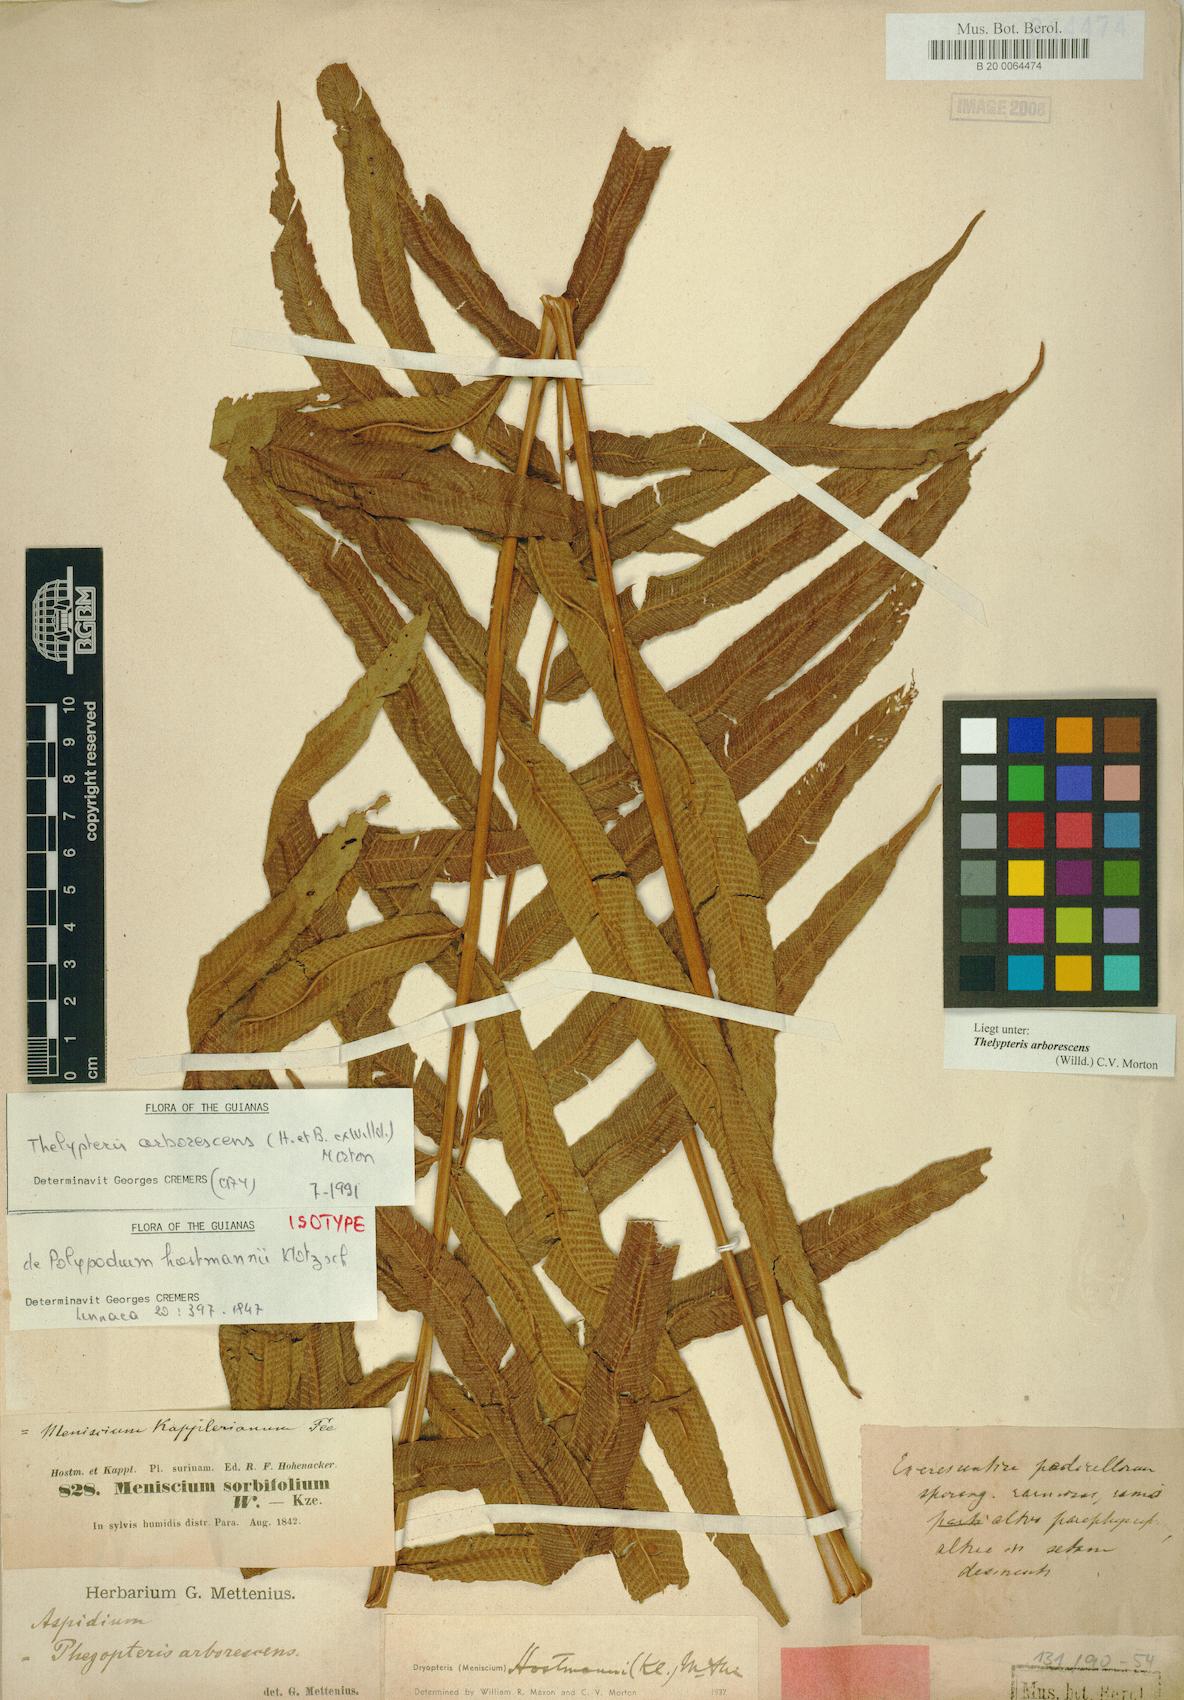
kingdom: Plantae
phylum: Tracheophyta
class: Polypodiopsida
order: Polypodiales
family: Thelypteridaceae
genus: Meniscium
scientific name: Meniscium arborescens
